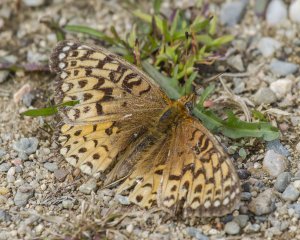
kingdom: Animalia
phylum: Arthropoda
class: Insecta
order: Lepidoptera
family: Nymphalidae
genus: Speyeria
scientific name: Speyeria atlantis
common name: Atlantis Fritillary
